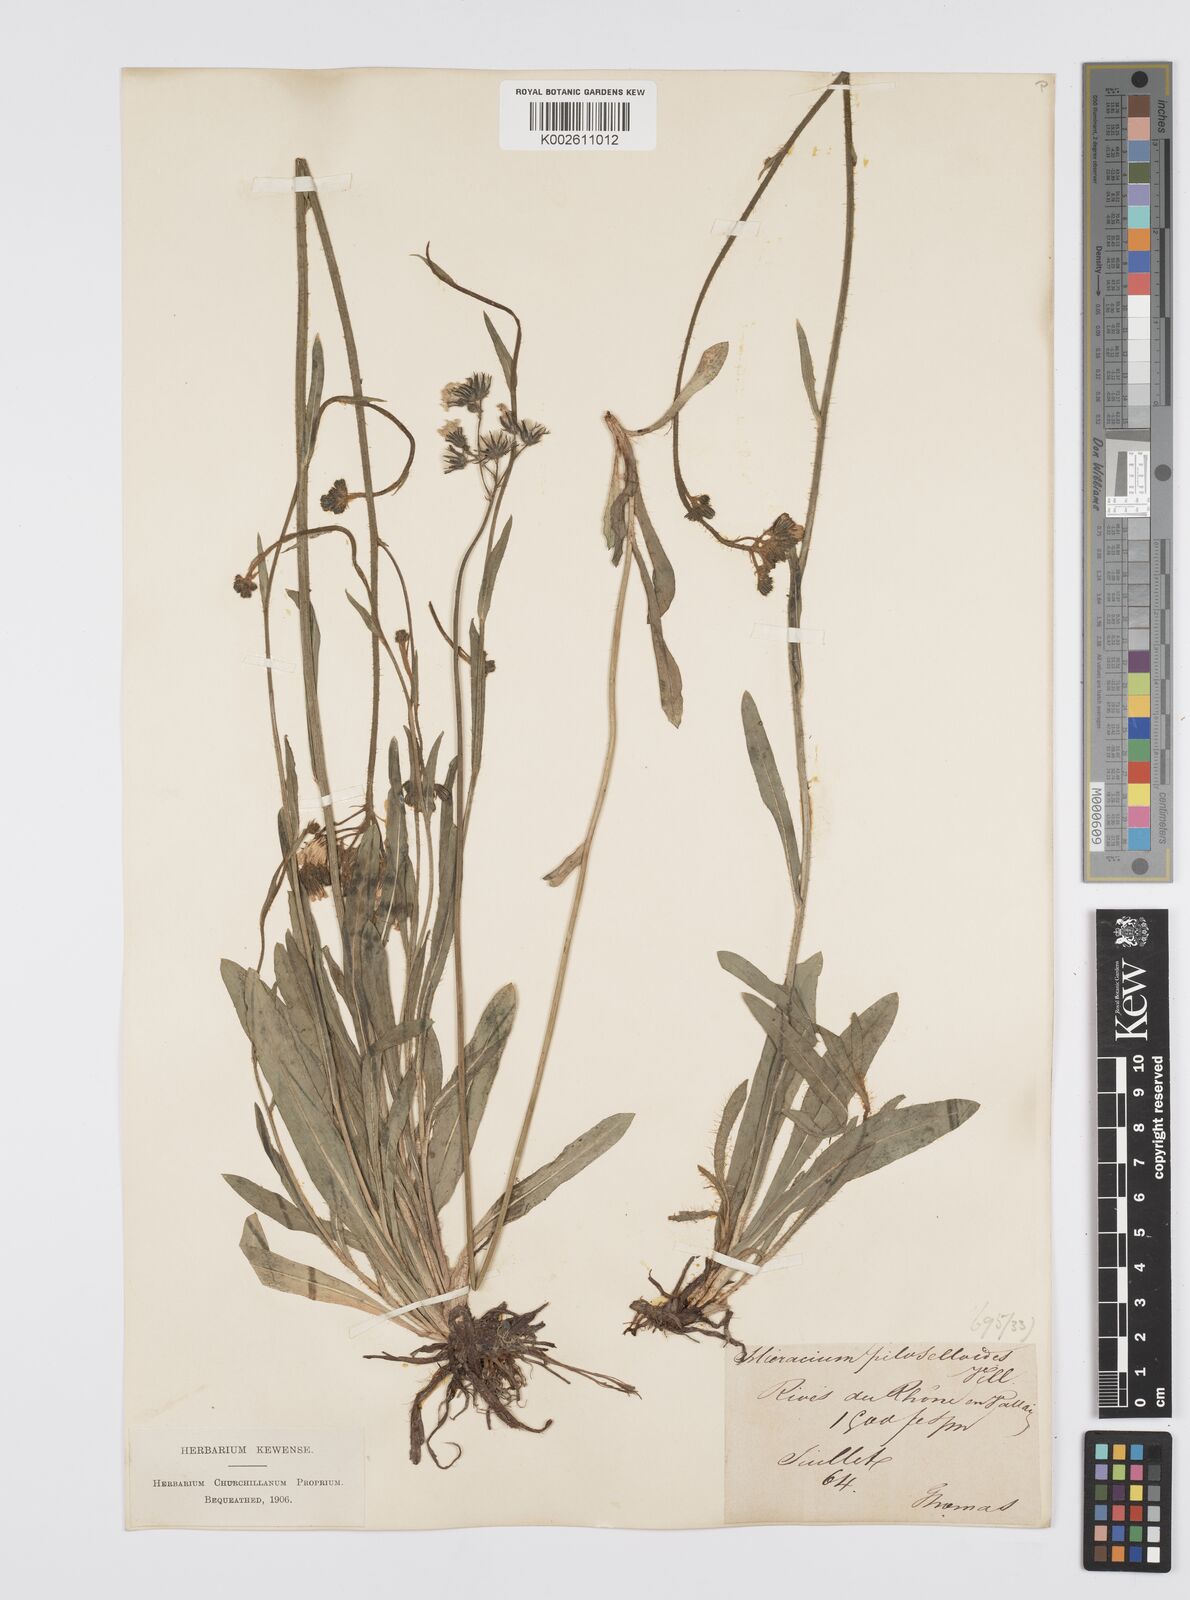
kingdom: Plantae
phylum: Tracheophyta
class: Magnoliopsida
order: Asterales
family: Asteraceae
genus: Pilosella
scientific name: Pilosella piloselloides
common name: Glaucous king-devil
